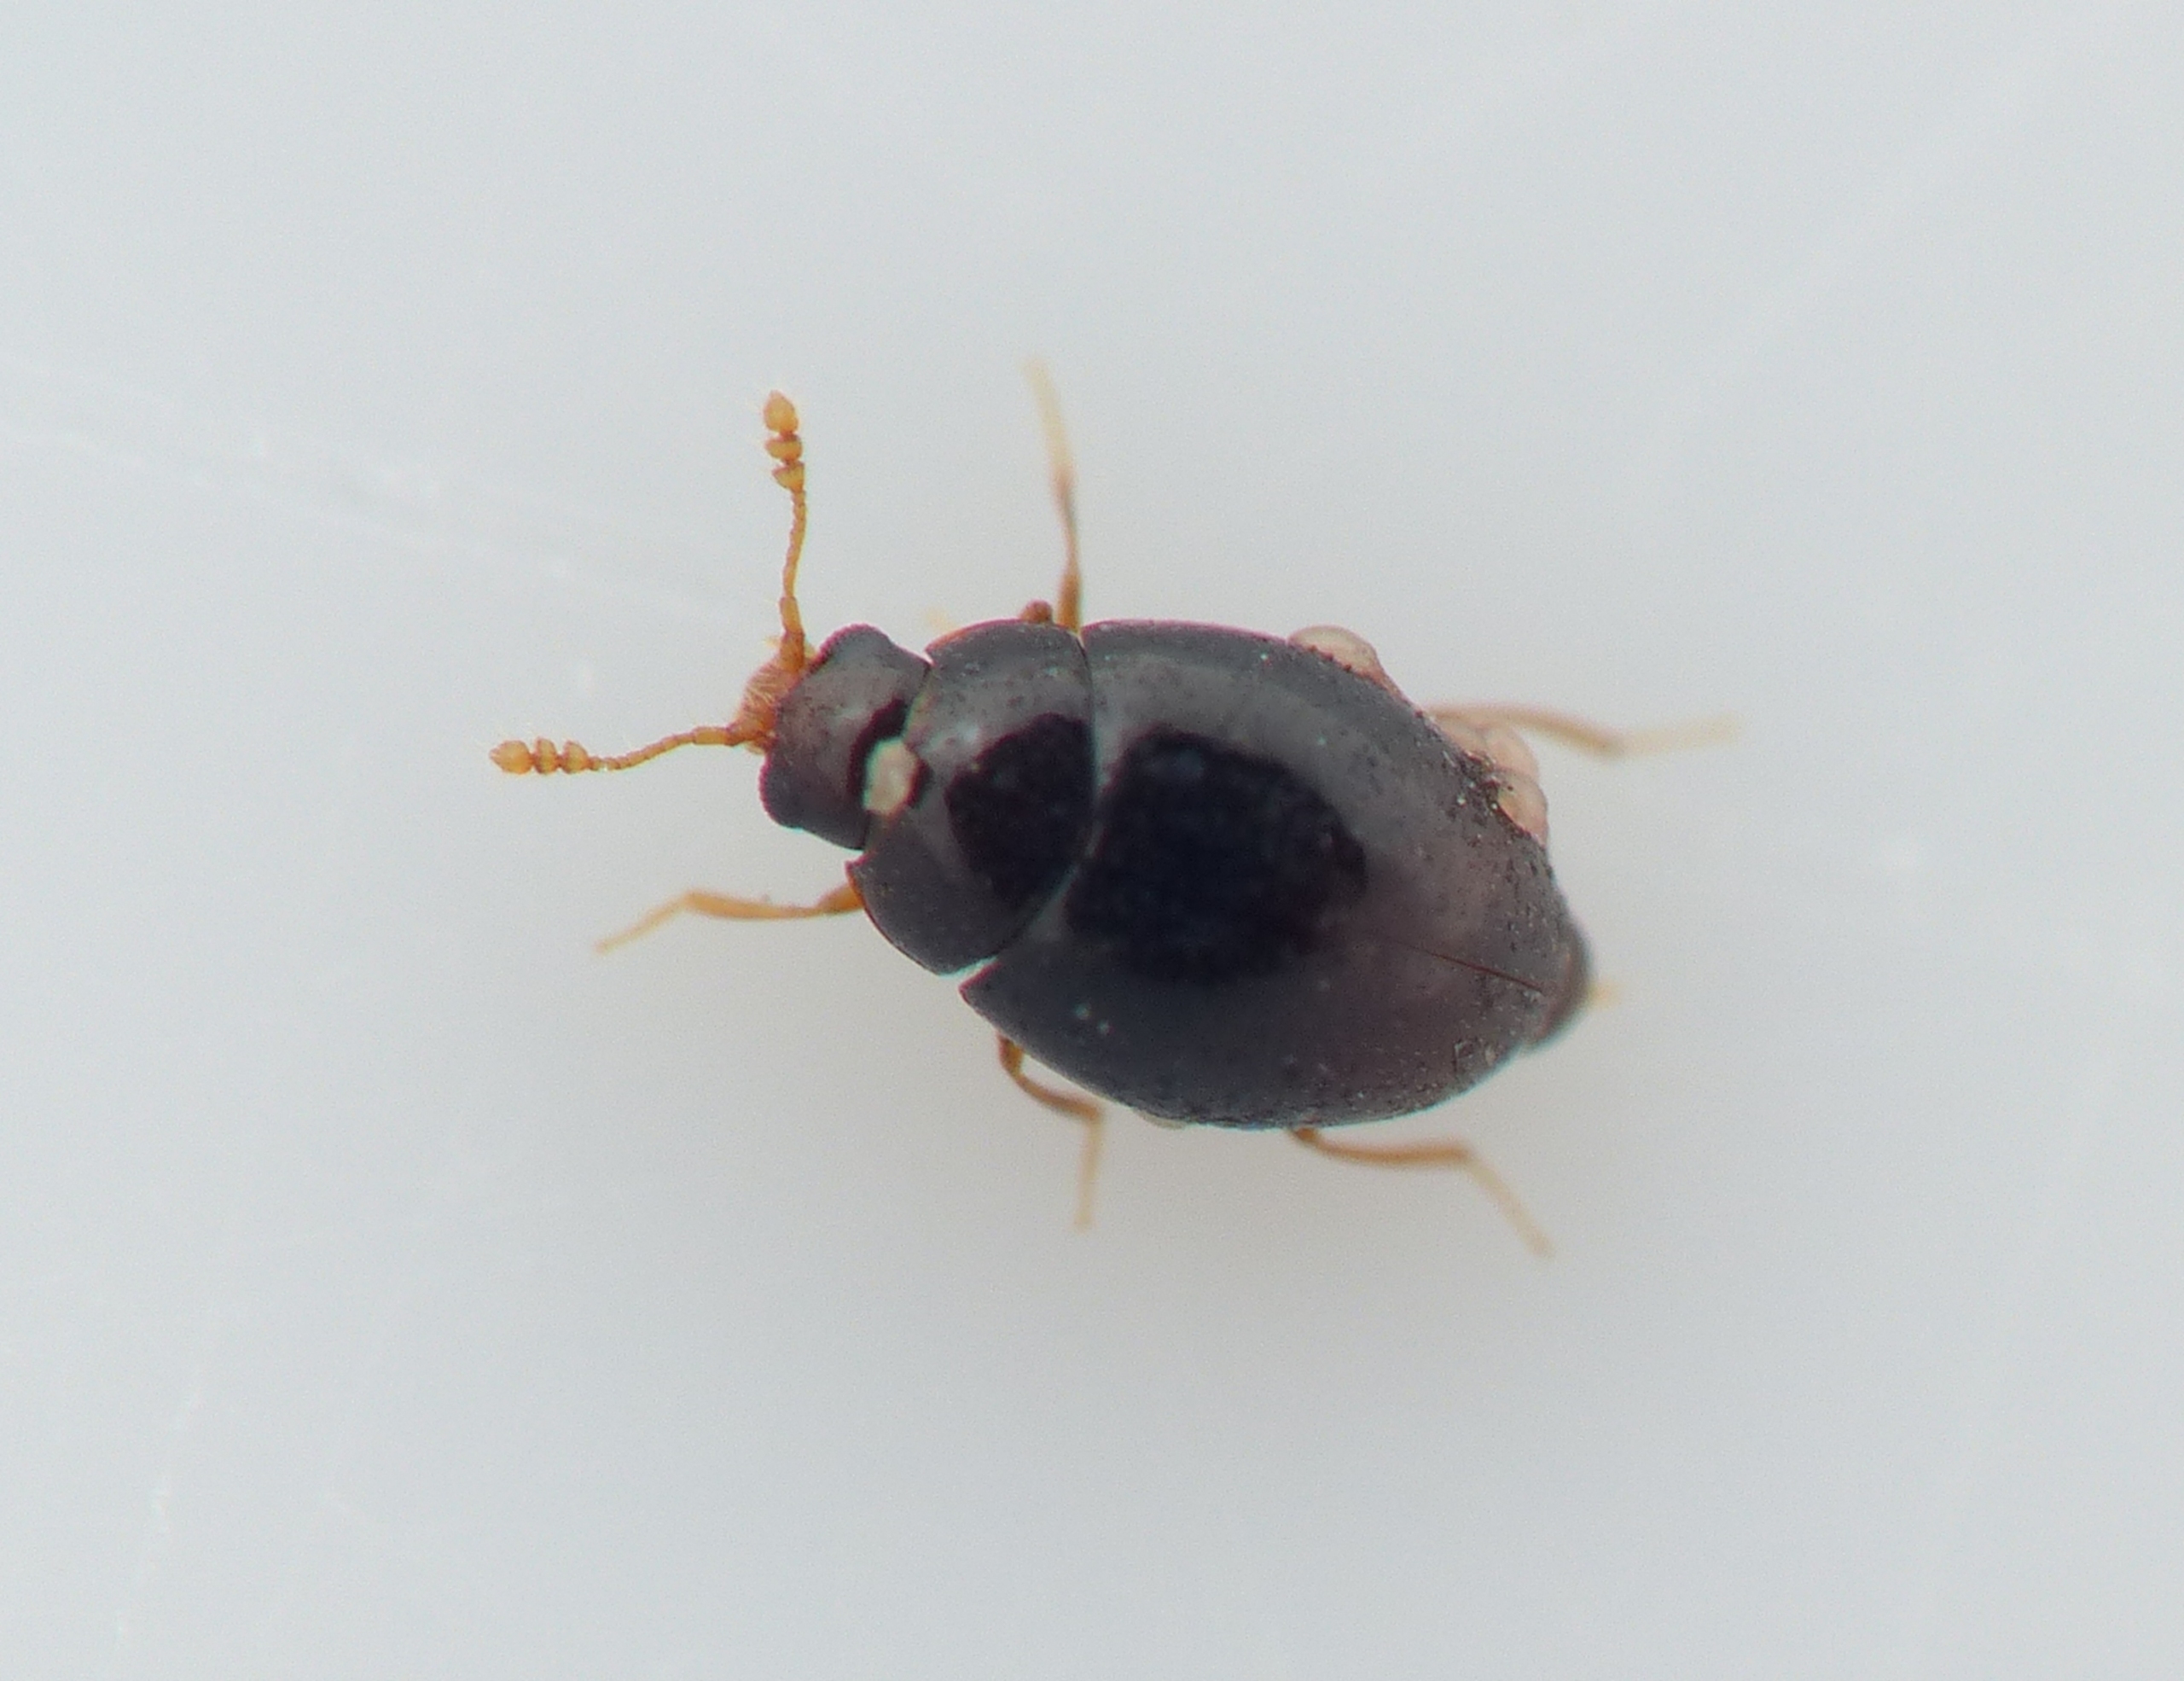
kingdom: Animalia
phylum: Arthropoda
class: Insecta
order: Coleoptera
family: Cryptophagidae
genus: Ephistemus
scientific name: Ephistemus globulus
